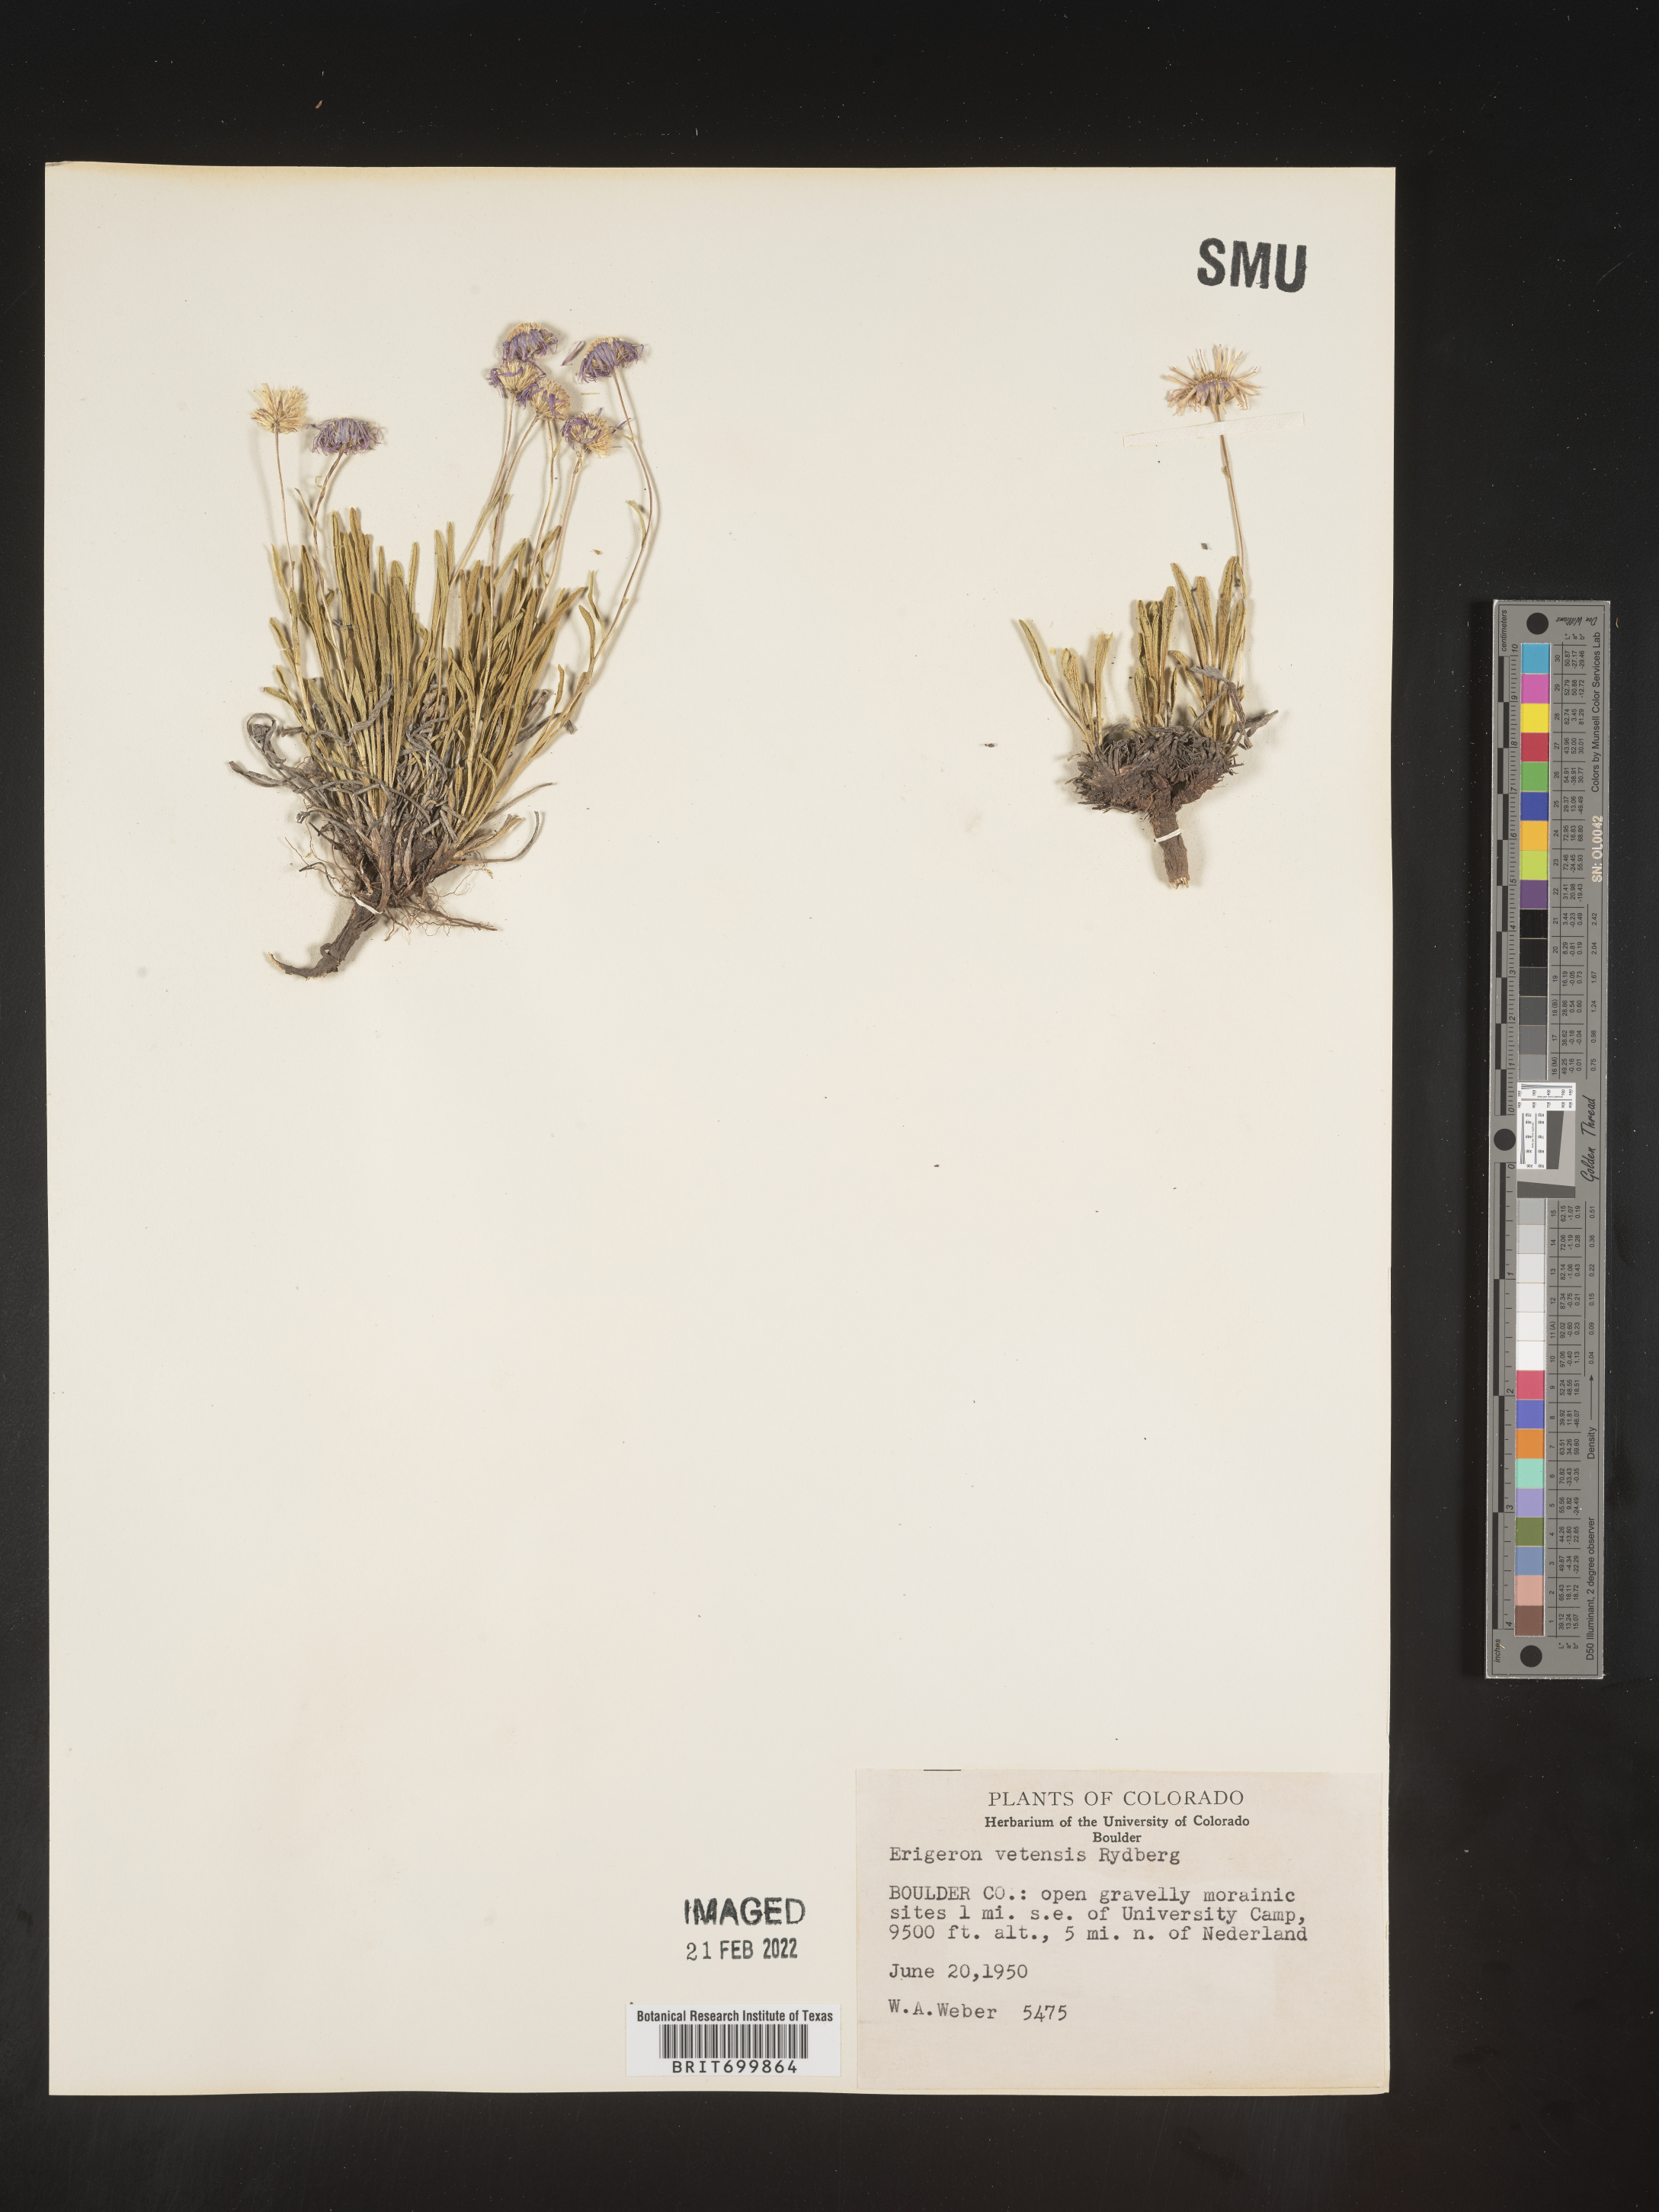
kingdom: Plantae
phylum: Tracheophyta
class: Magnoliopsida
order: Asterales
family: Asteraceae
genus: Erigeron
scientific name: Erigeron vetensis
